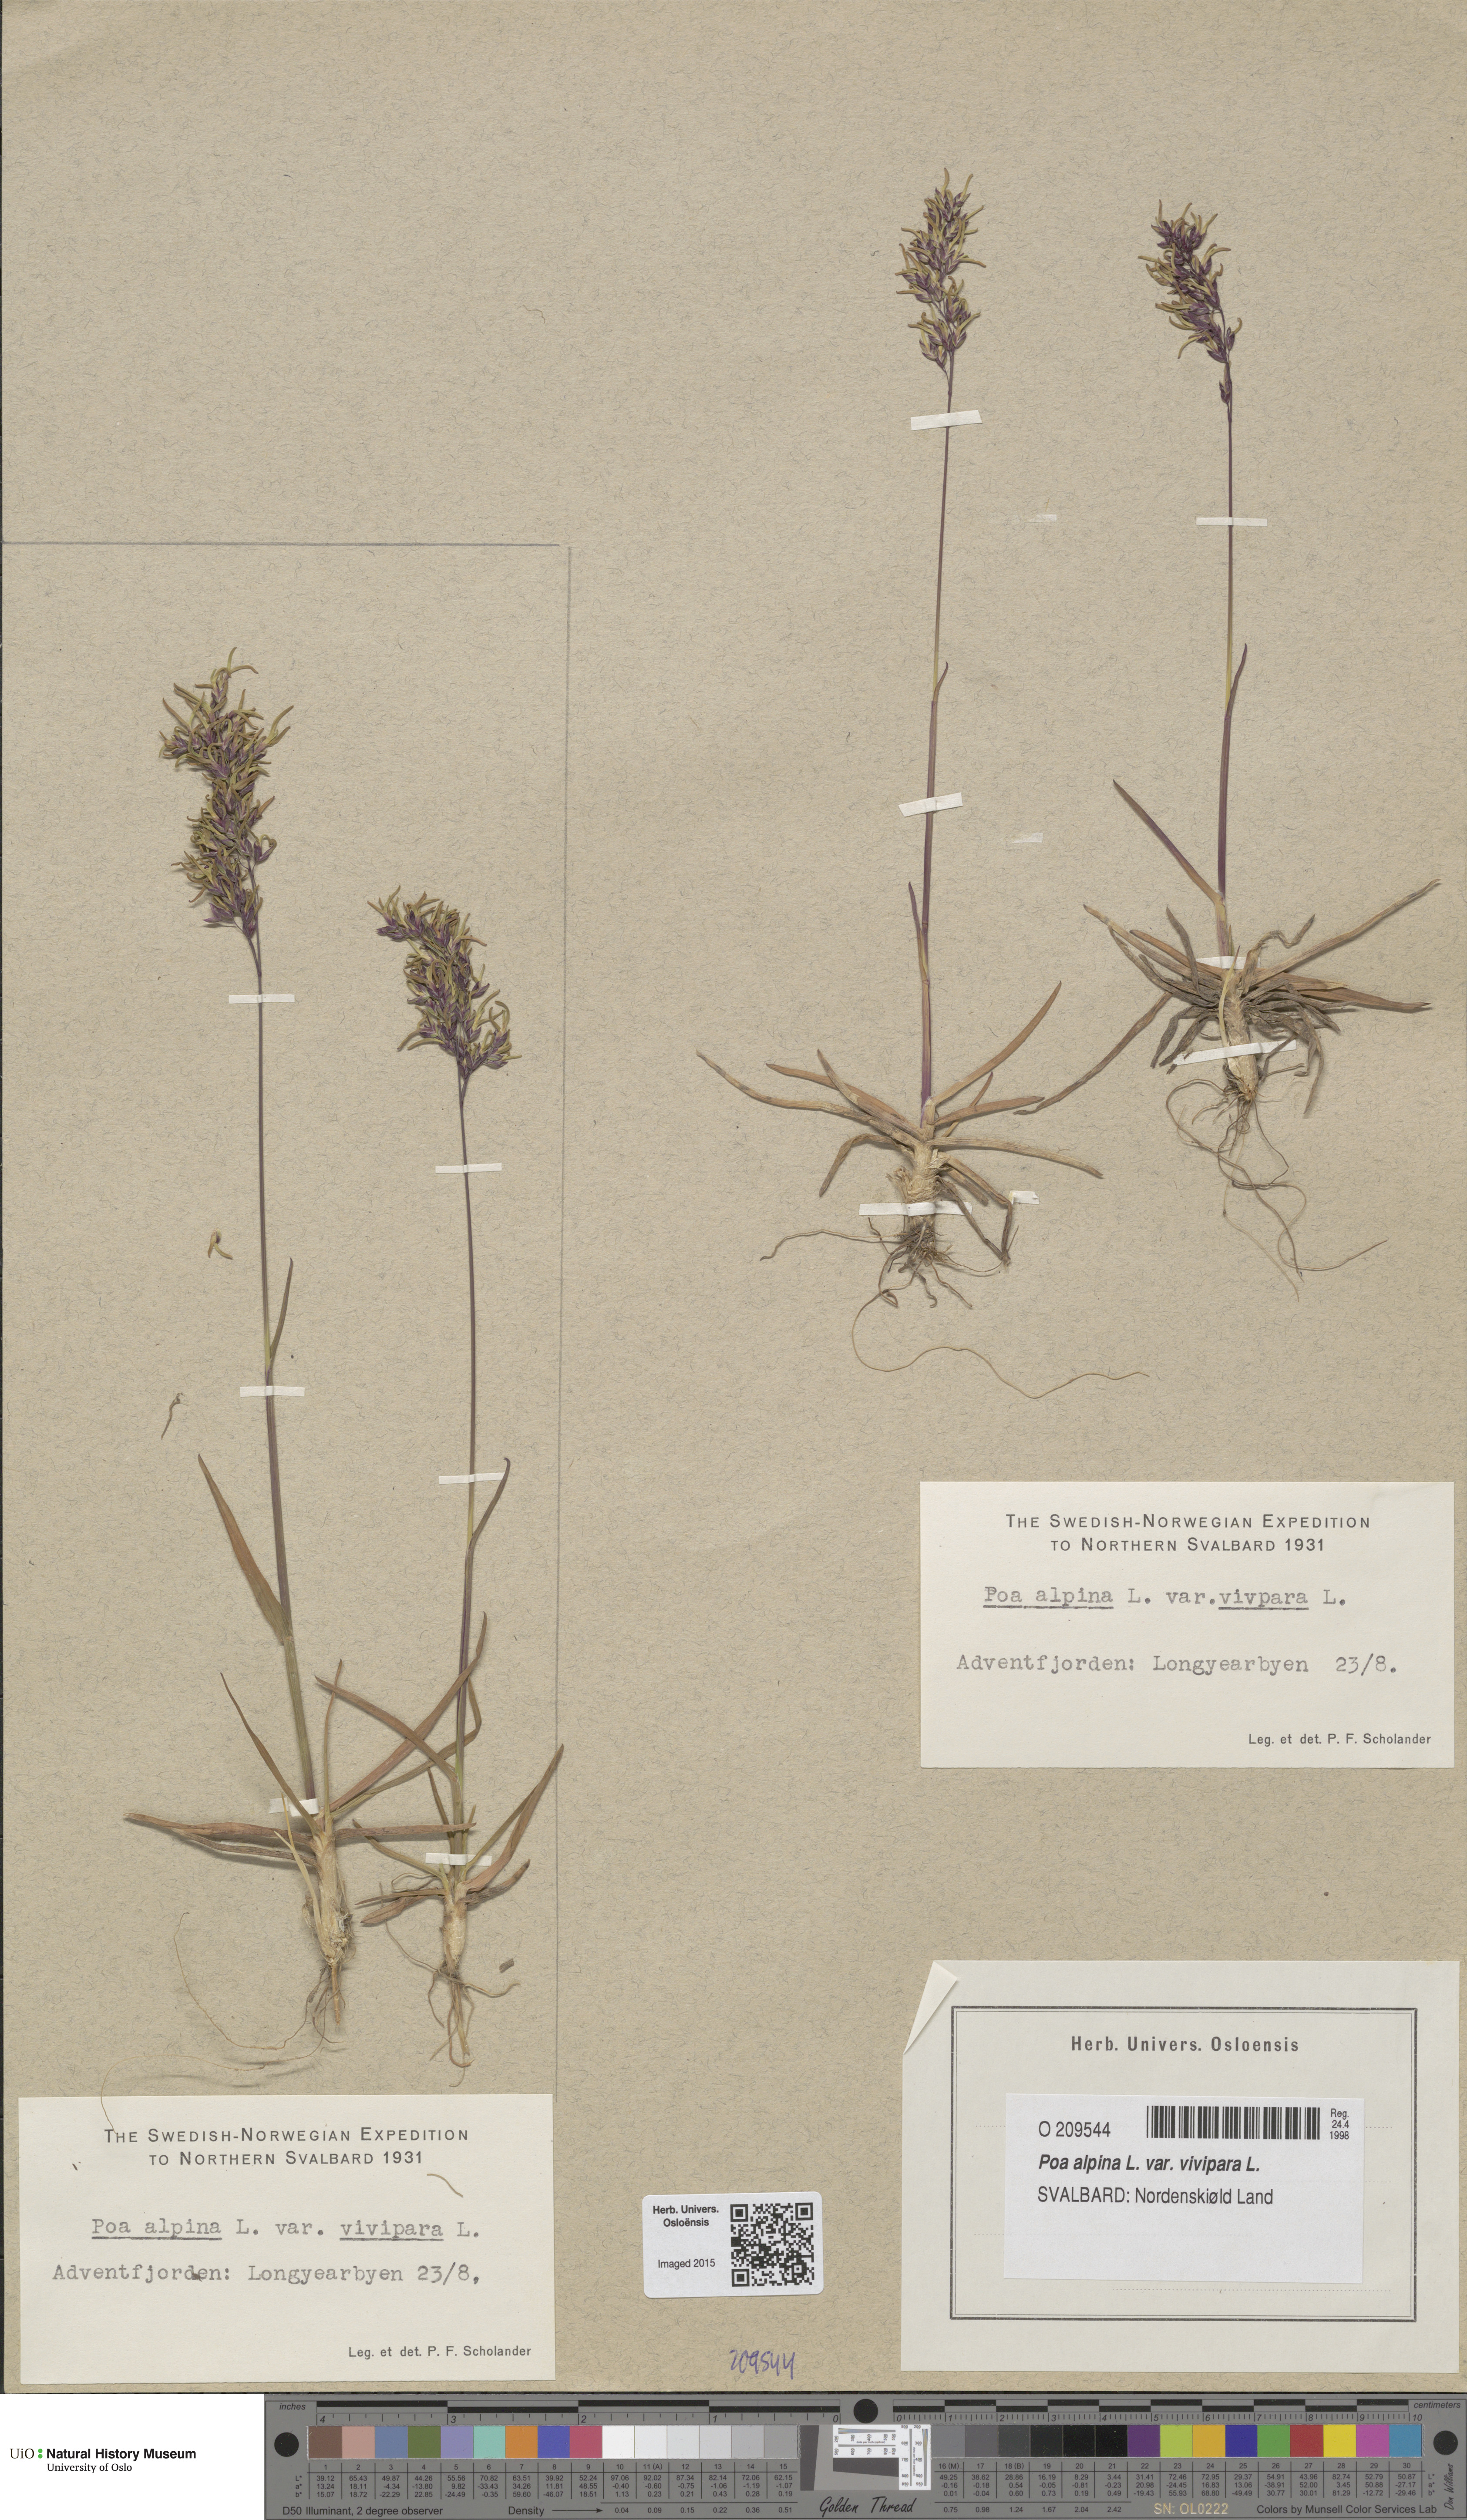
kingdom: Plantae
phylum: Tracheophyta
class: Liliopsida
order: Poales
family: Poaceae
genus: Poa
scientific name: Poa alpina
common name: Alpine bluegrass
